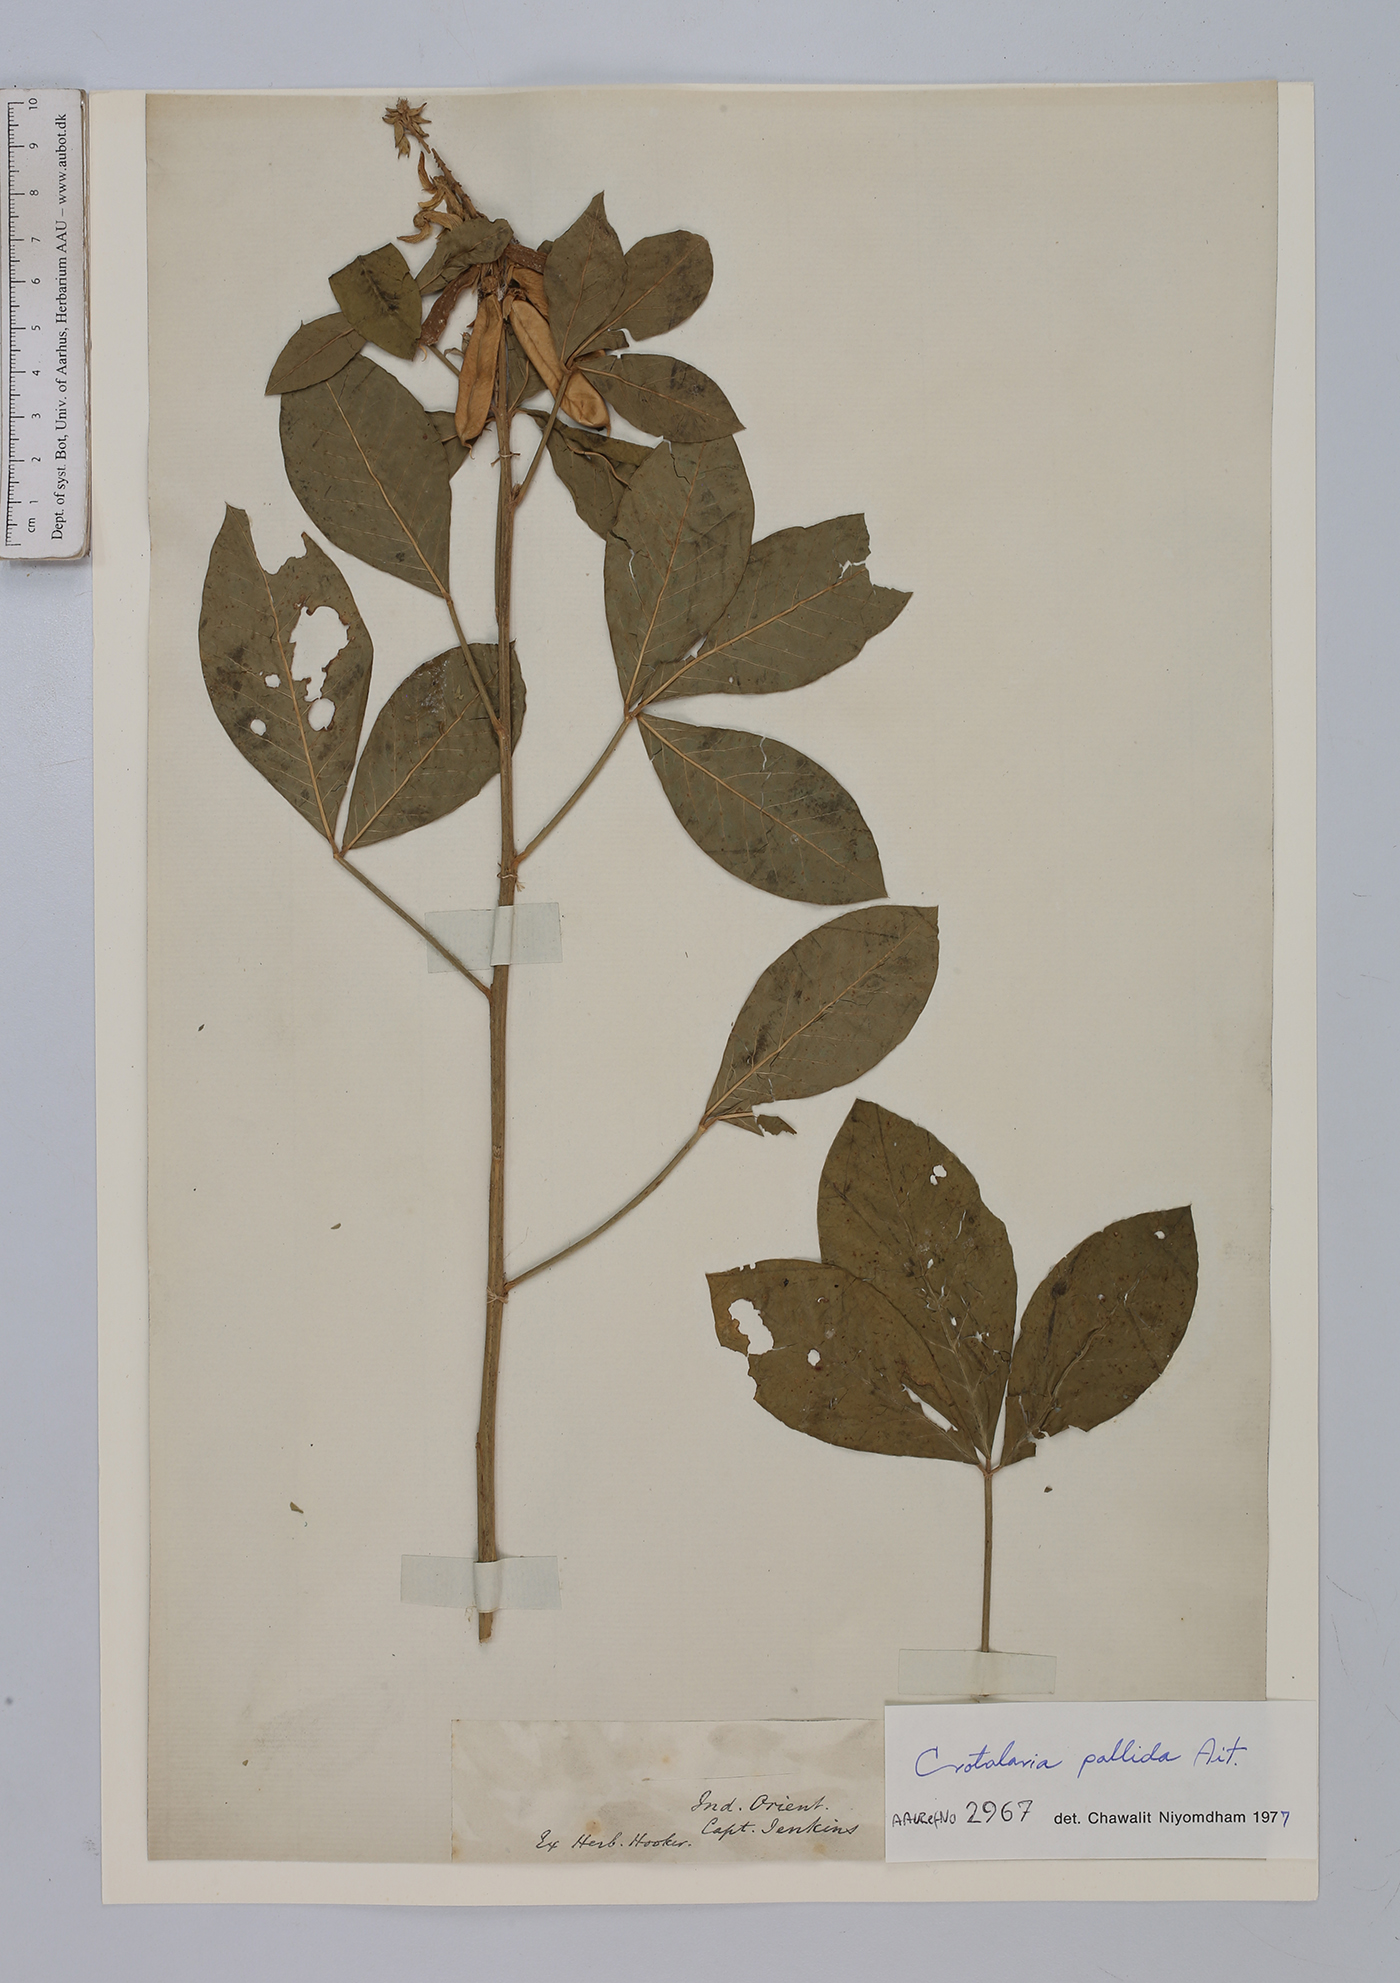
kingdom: Plantae
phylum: Tracheophyta
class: Magnoliopsida
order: Fabales
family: Fabaceae
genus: Crotalaria
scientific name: Crotalaria pallida
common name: Smooth rattlebox
